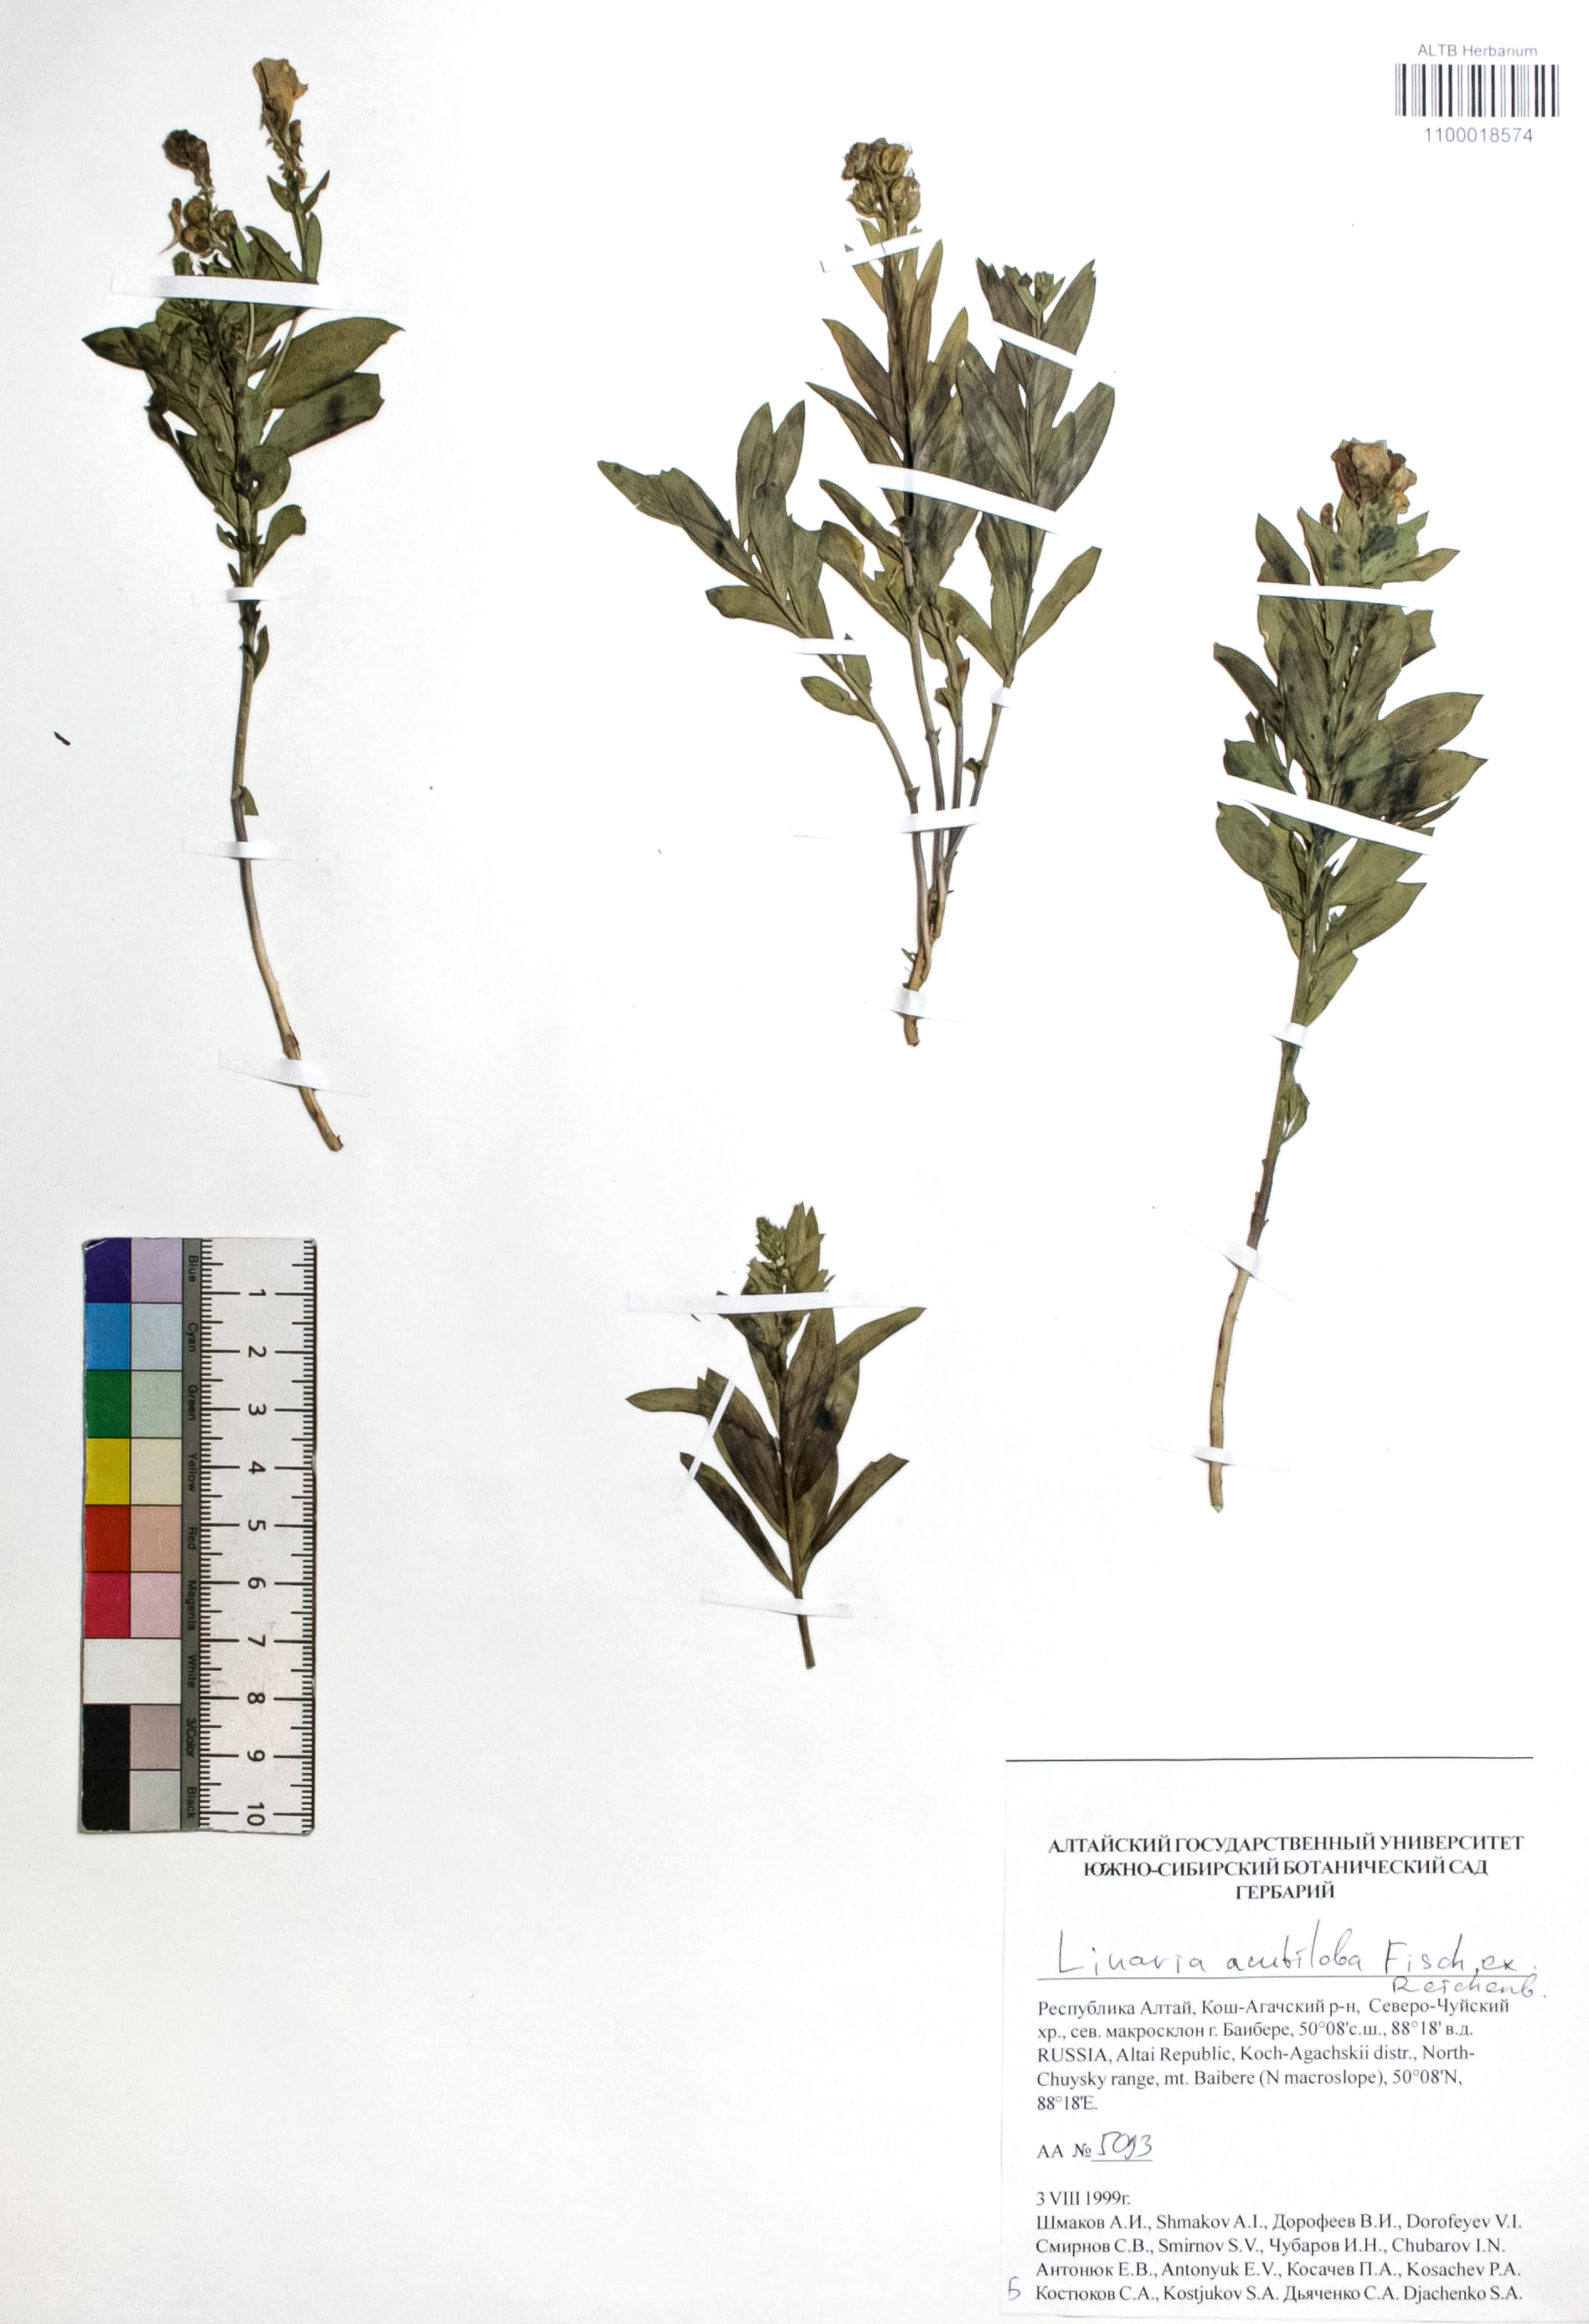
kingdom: Plantae
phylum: Tracheophyta
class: Magnoliopsida
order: Lamiales
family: Plantaginaceae
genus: Linaria
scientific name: Linaria acutiloba
